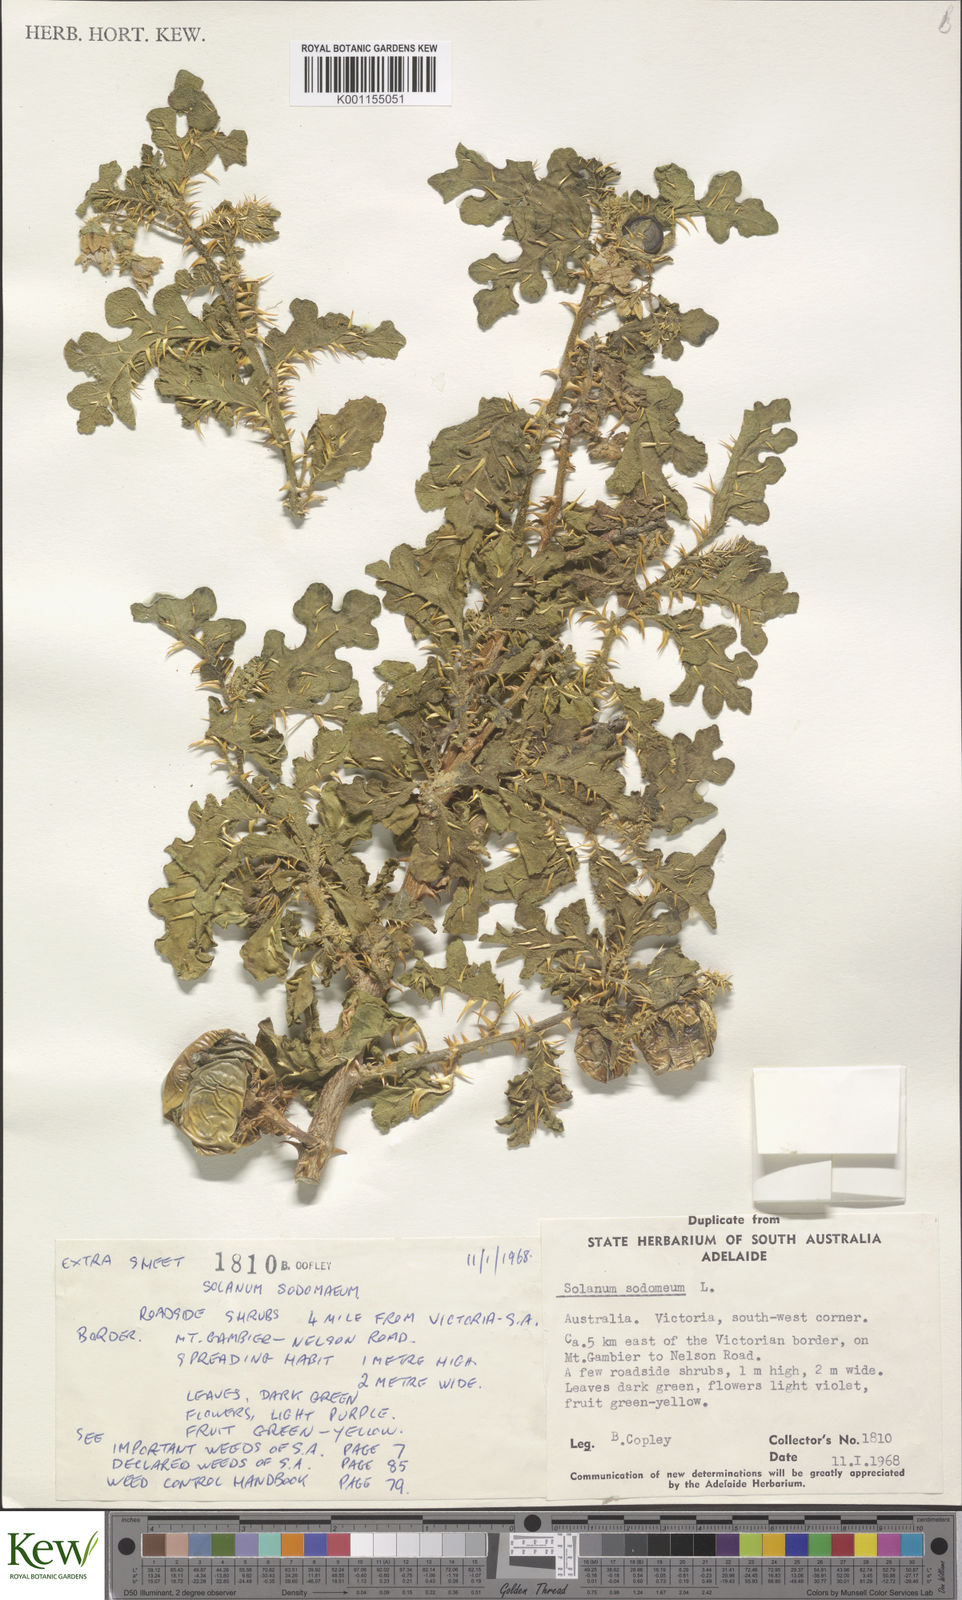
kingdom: Plantae
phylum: Tracheophyta
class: Magnoliopsida
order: Solanales
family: Solanaceae
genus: Solanum
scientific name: Solanum anguivi
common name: Forest bitterberry
